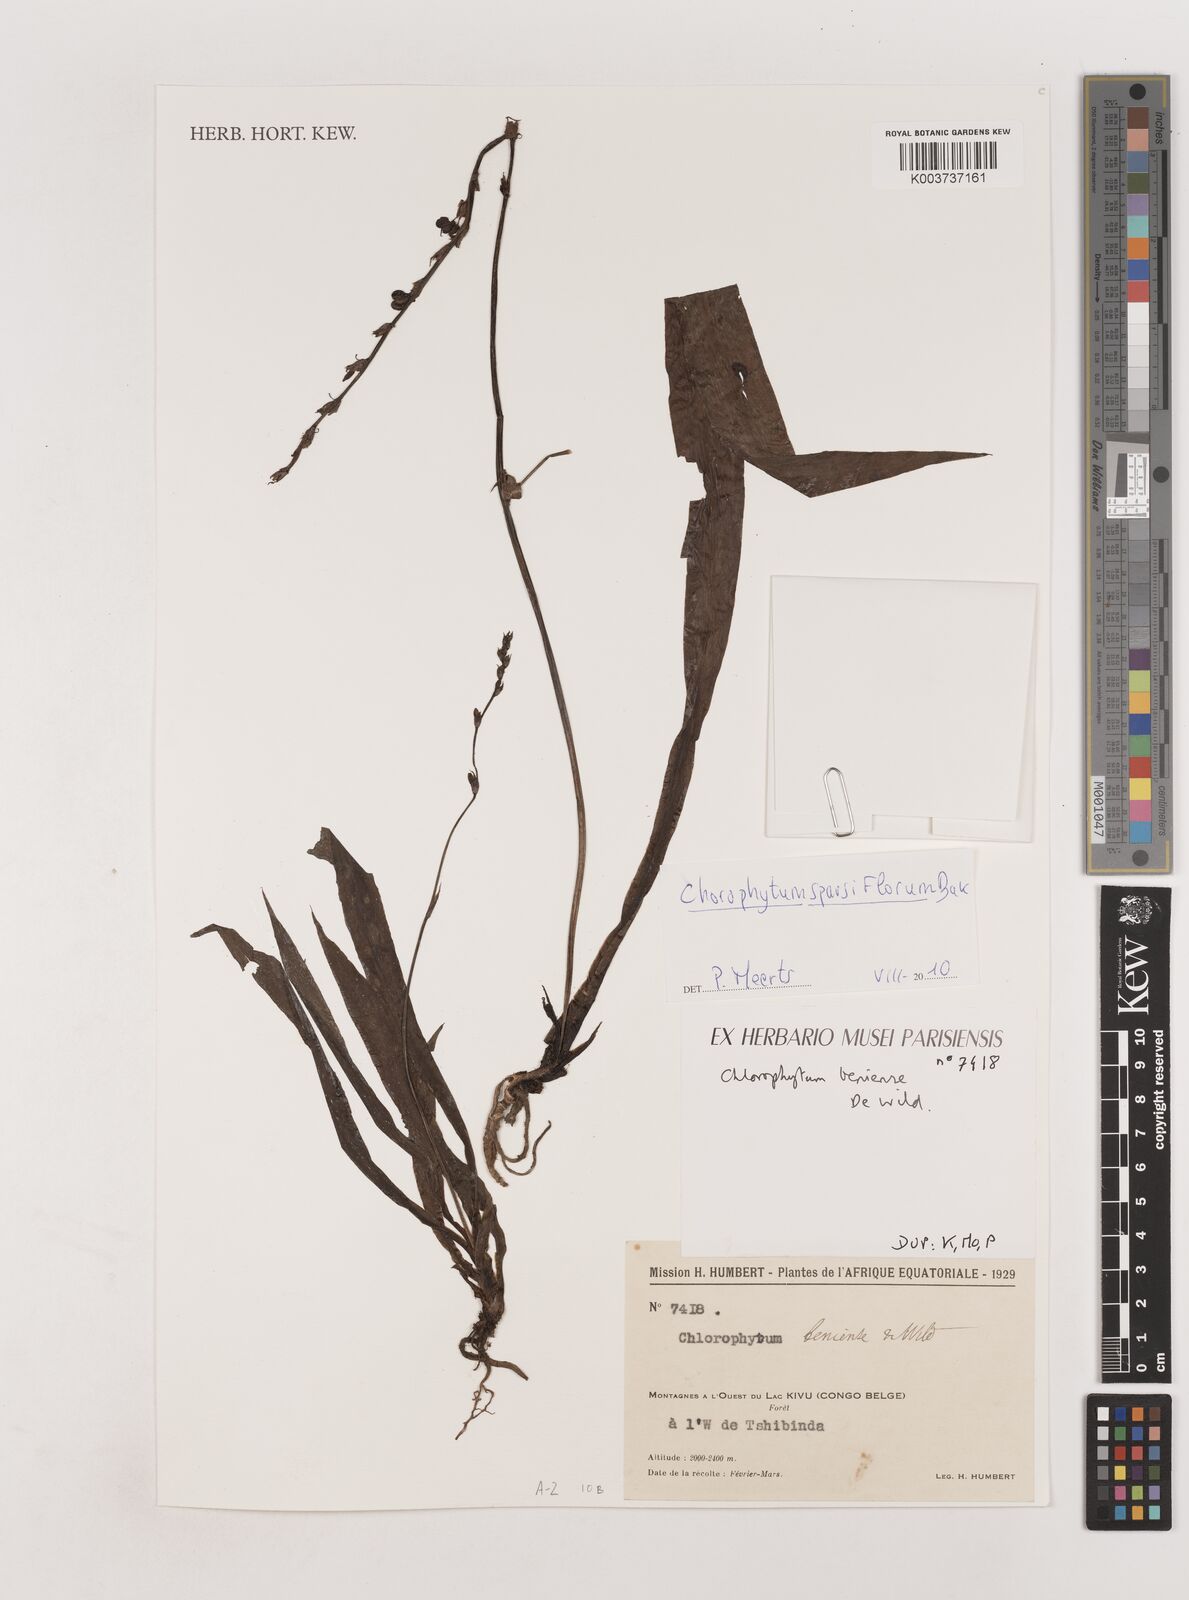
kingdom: Plantae
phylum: Tracheophyta
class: Liliopsida
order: Asparagales
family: Asparagaceae
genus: Chlorophytum
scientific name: Chlorophytum sparsiflorum
